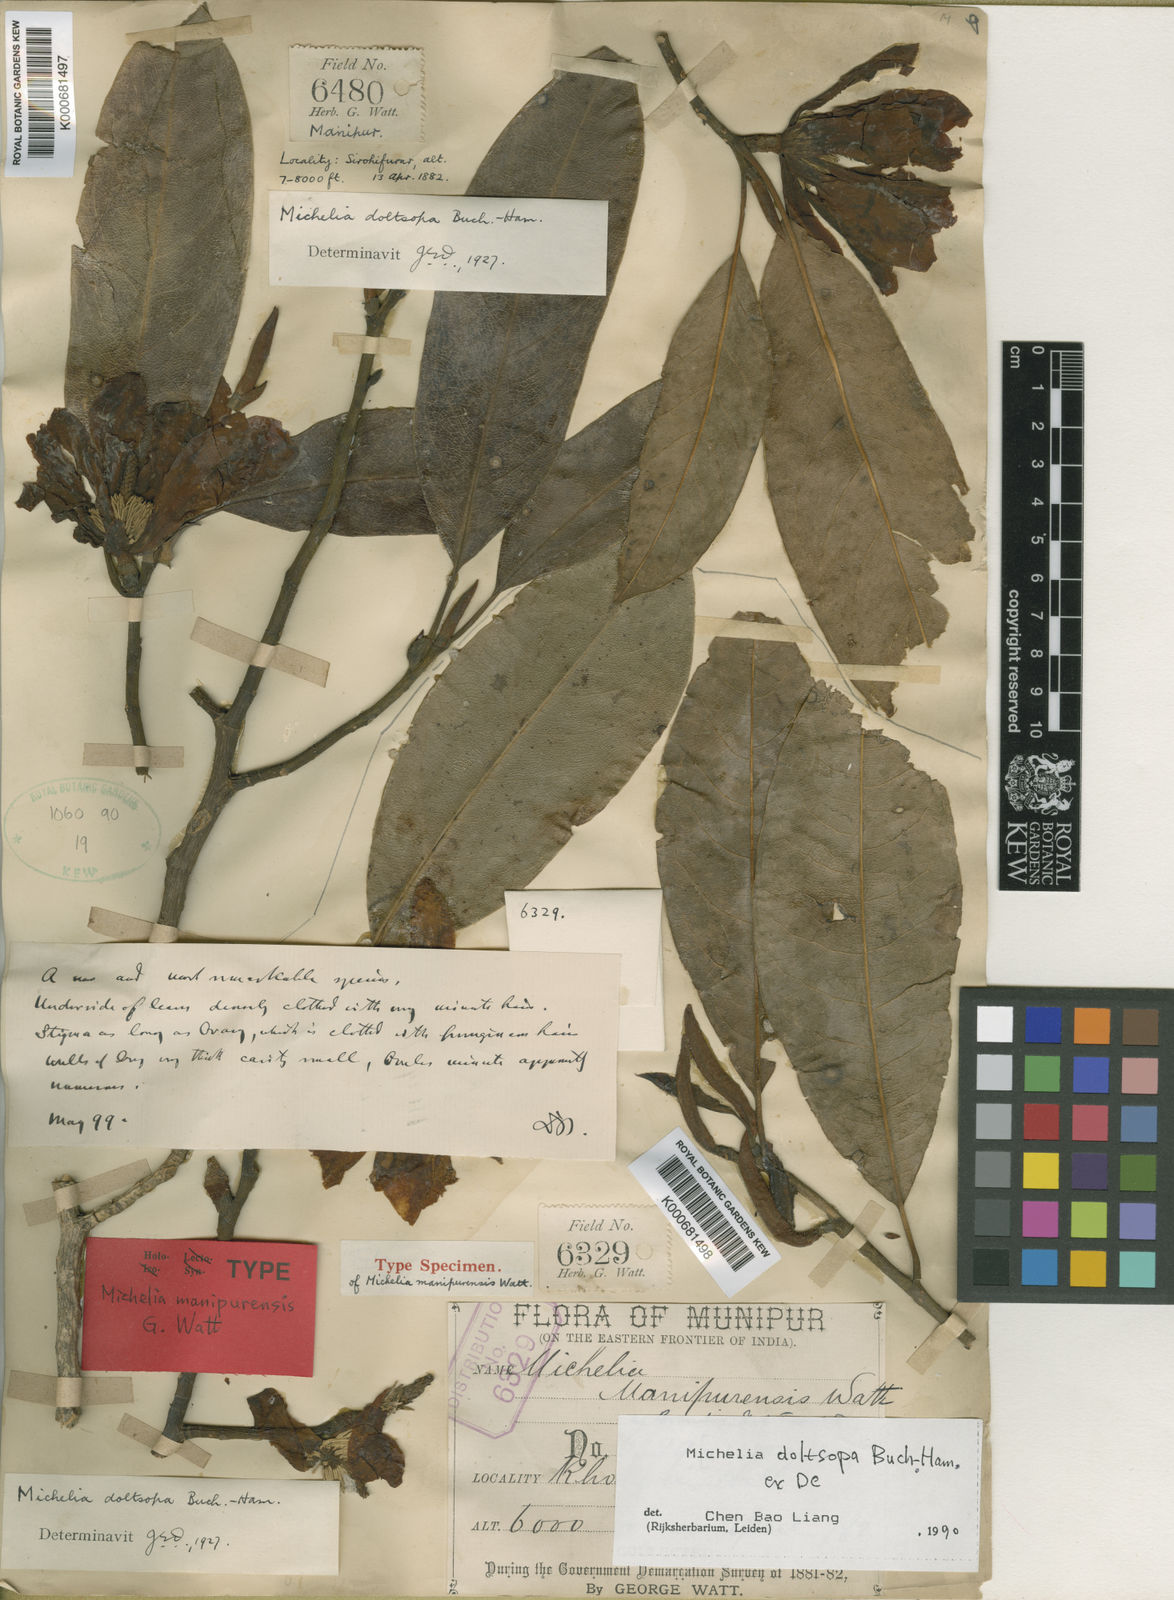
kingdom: Plantae
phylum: Tracheophyta
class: Magnoliopsida
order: Magnoliales
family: Magnoliaceae
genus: Magnolia
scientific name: Magnolia doltsopa
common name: Sweet michelia
